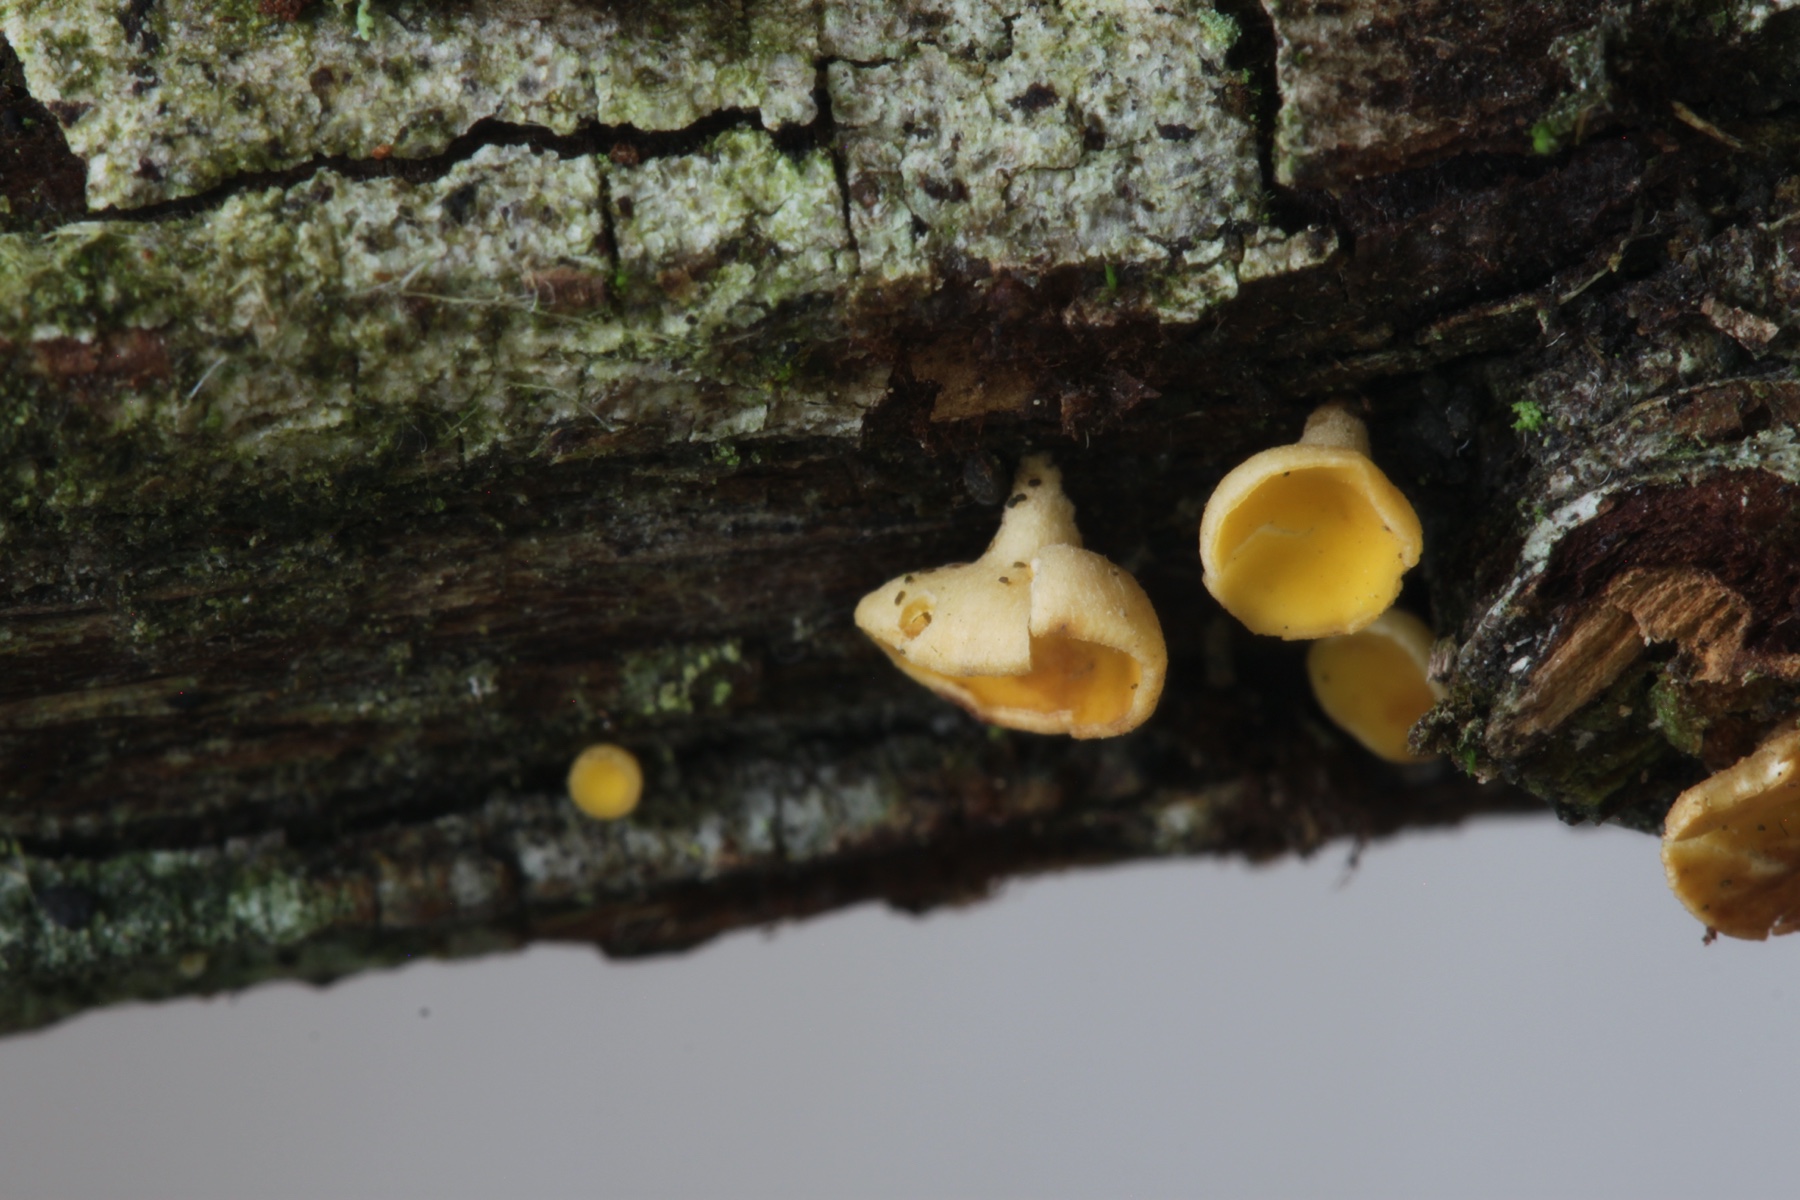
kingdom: Fungi
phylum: Ascomycota
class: Leotiomycetes
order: Helotiales
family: Helotiaceae
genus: Hymenoscyphus
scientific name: Hymenoscyphus
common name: stilkskive
